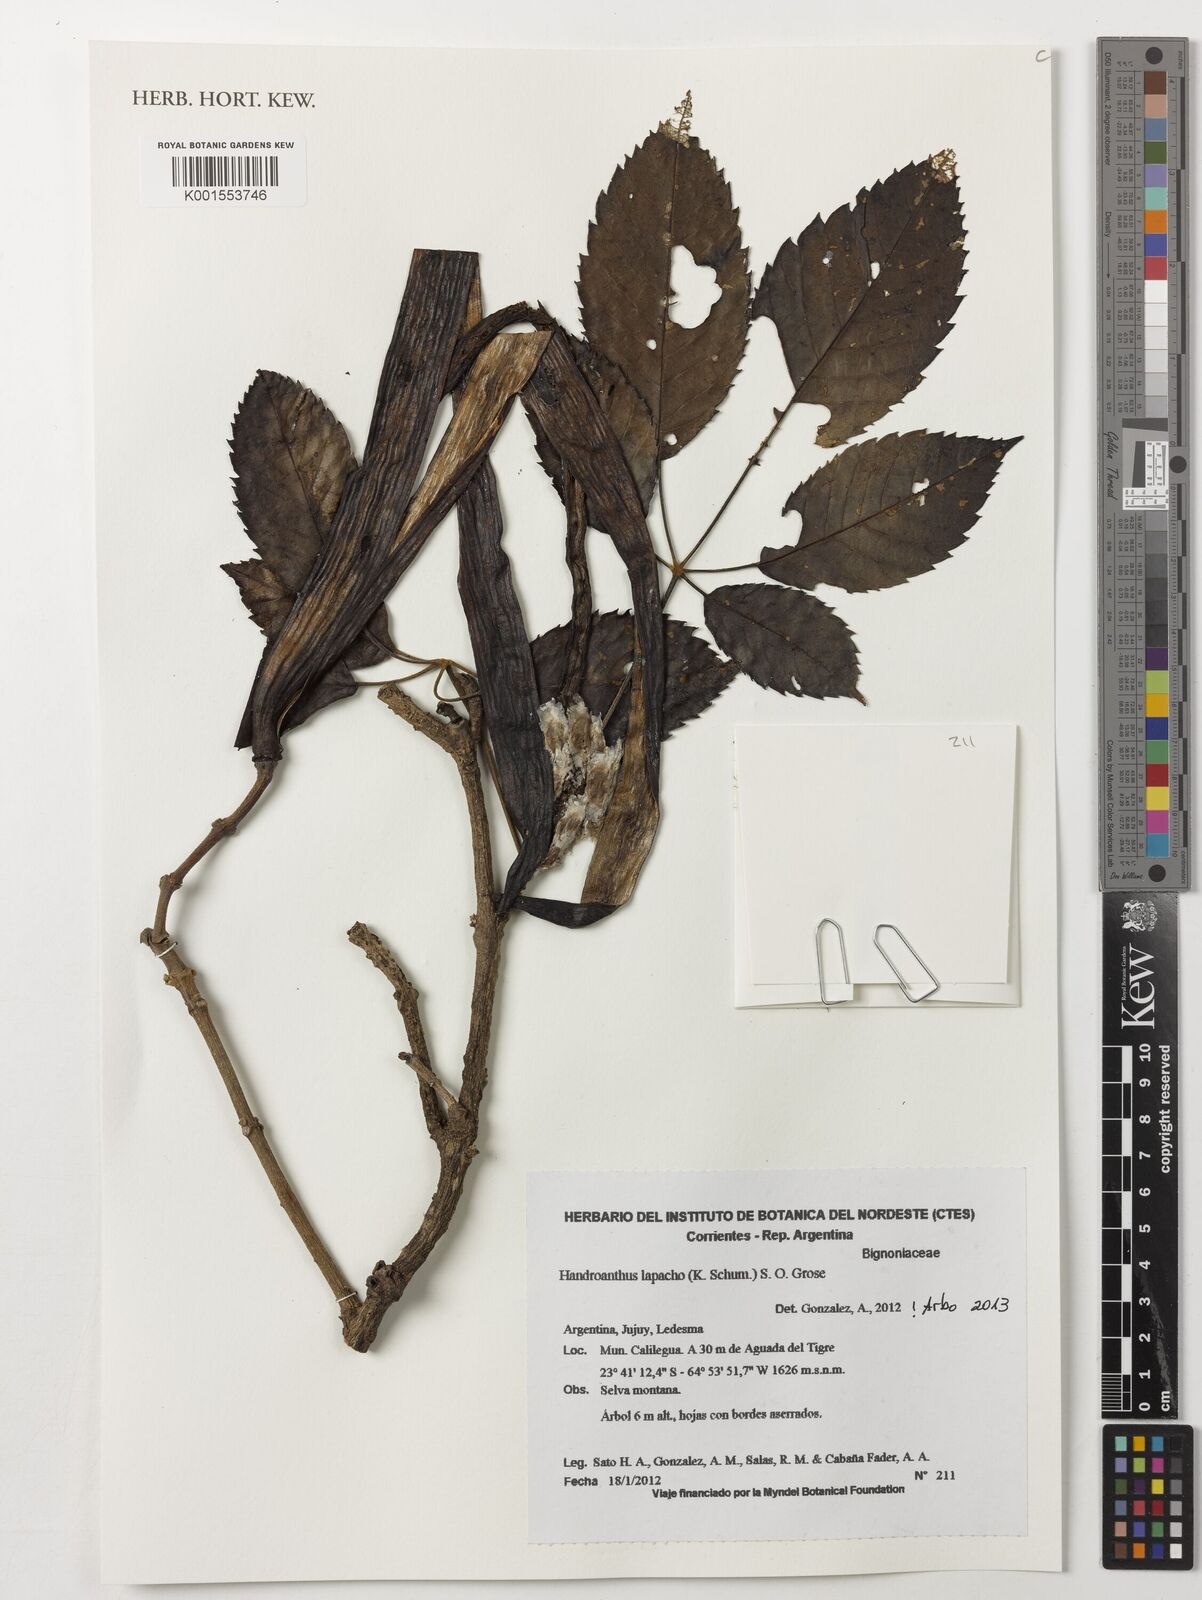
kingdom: Plantae
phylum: Tracheophyta
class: Magnoliopsida
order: Lamiales
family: Bignoniaceae
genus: Handroanthus
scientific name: Handroanthus lapacho
